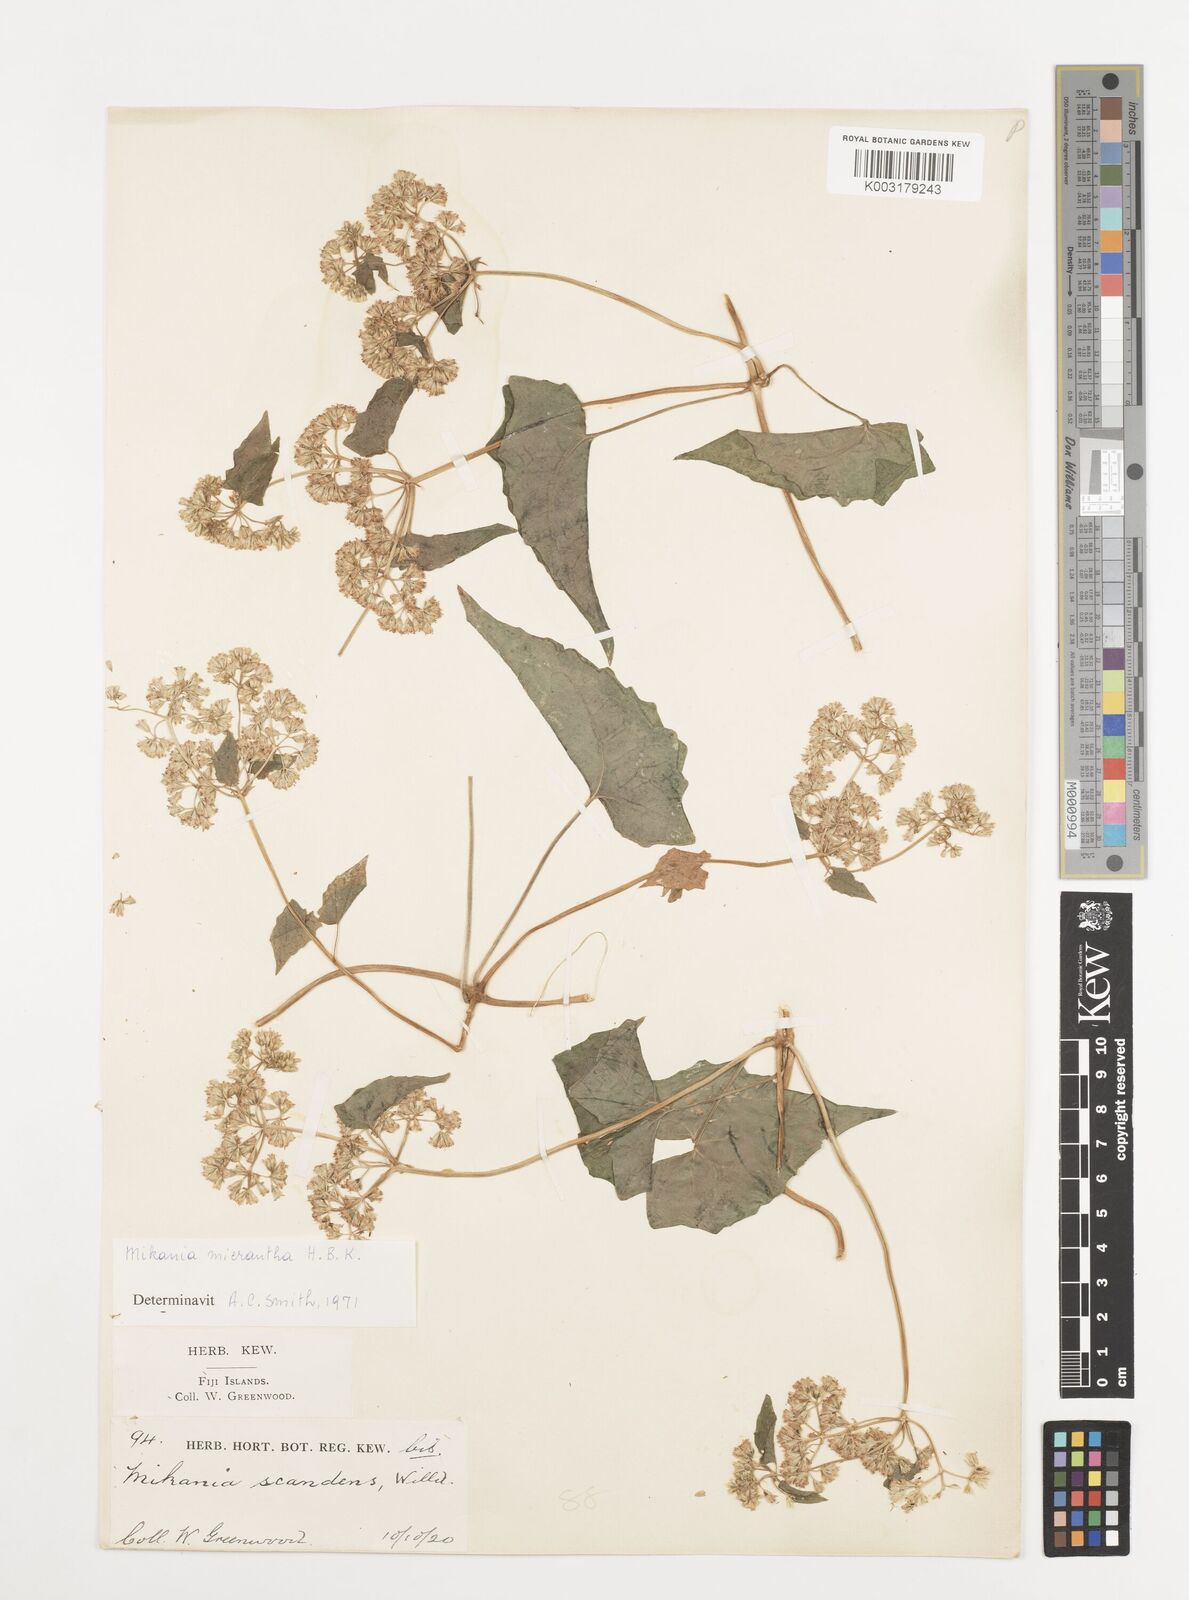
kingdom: Plantae
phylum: Tracheophyta
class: Magnoliopsida
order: Asterales
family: Asteraceae
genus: Mikania
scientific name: Mikania micrantha
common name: Mile-a-minute
